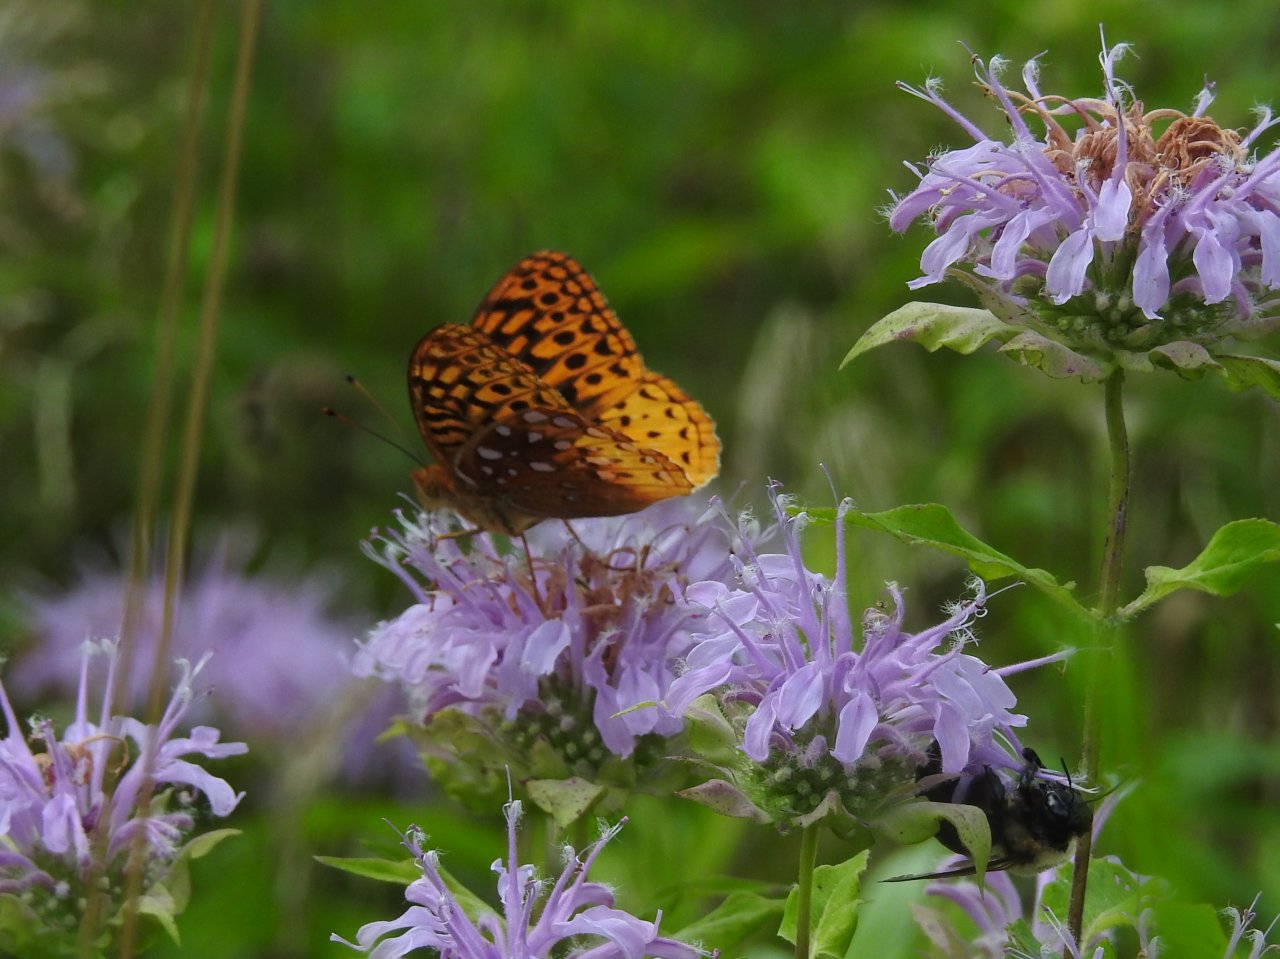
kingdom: Animalia
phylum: Arthropoda
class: Insecta
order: Lepidoptera
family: Nymphalidae
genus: Speyeria
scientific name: Speyeria cybele
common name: Great Spangled Fritillary
